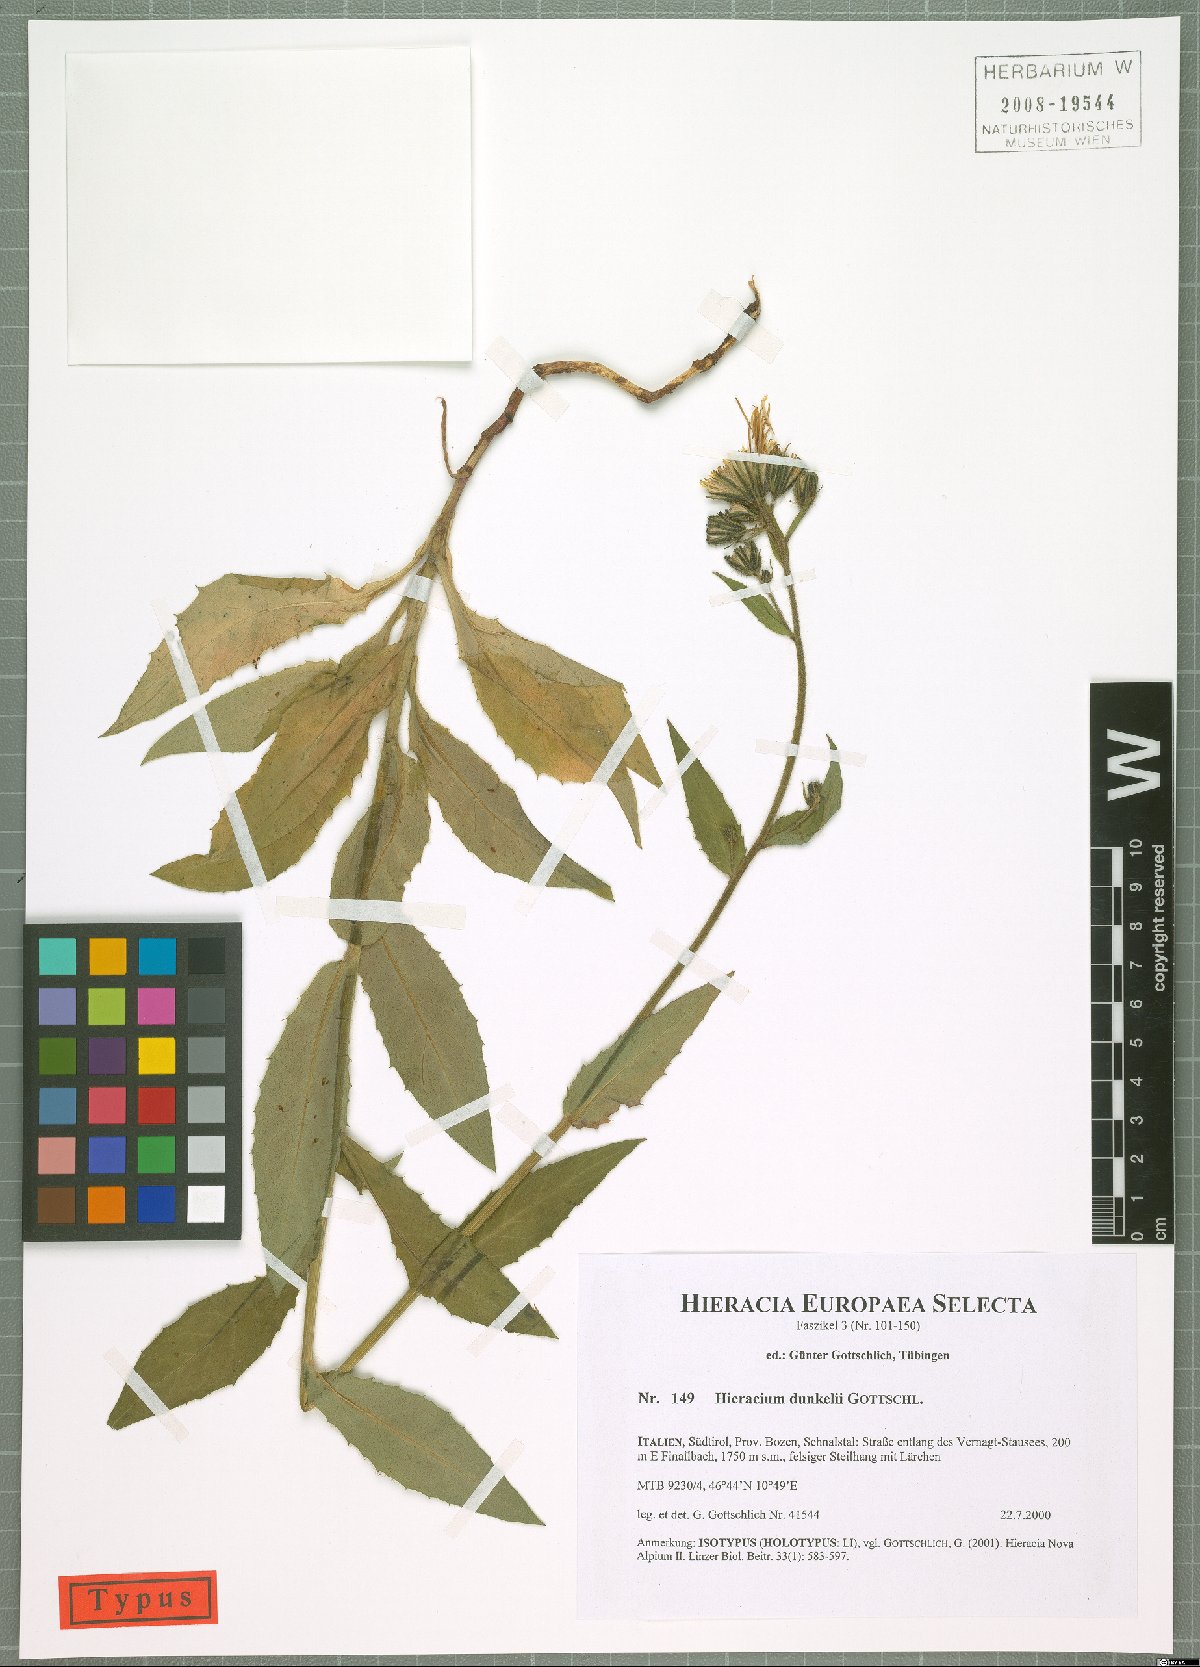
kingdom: Plantae
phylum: Tracheophyta
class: Magnoliopsida
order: Asterales
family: Asteraceae
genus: Hieracium
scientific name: Hieracium dunkelii
